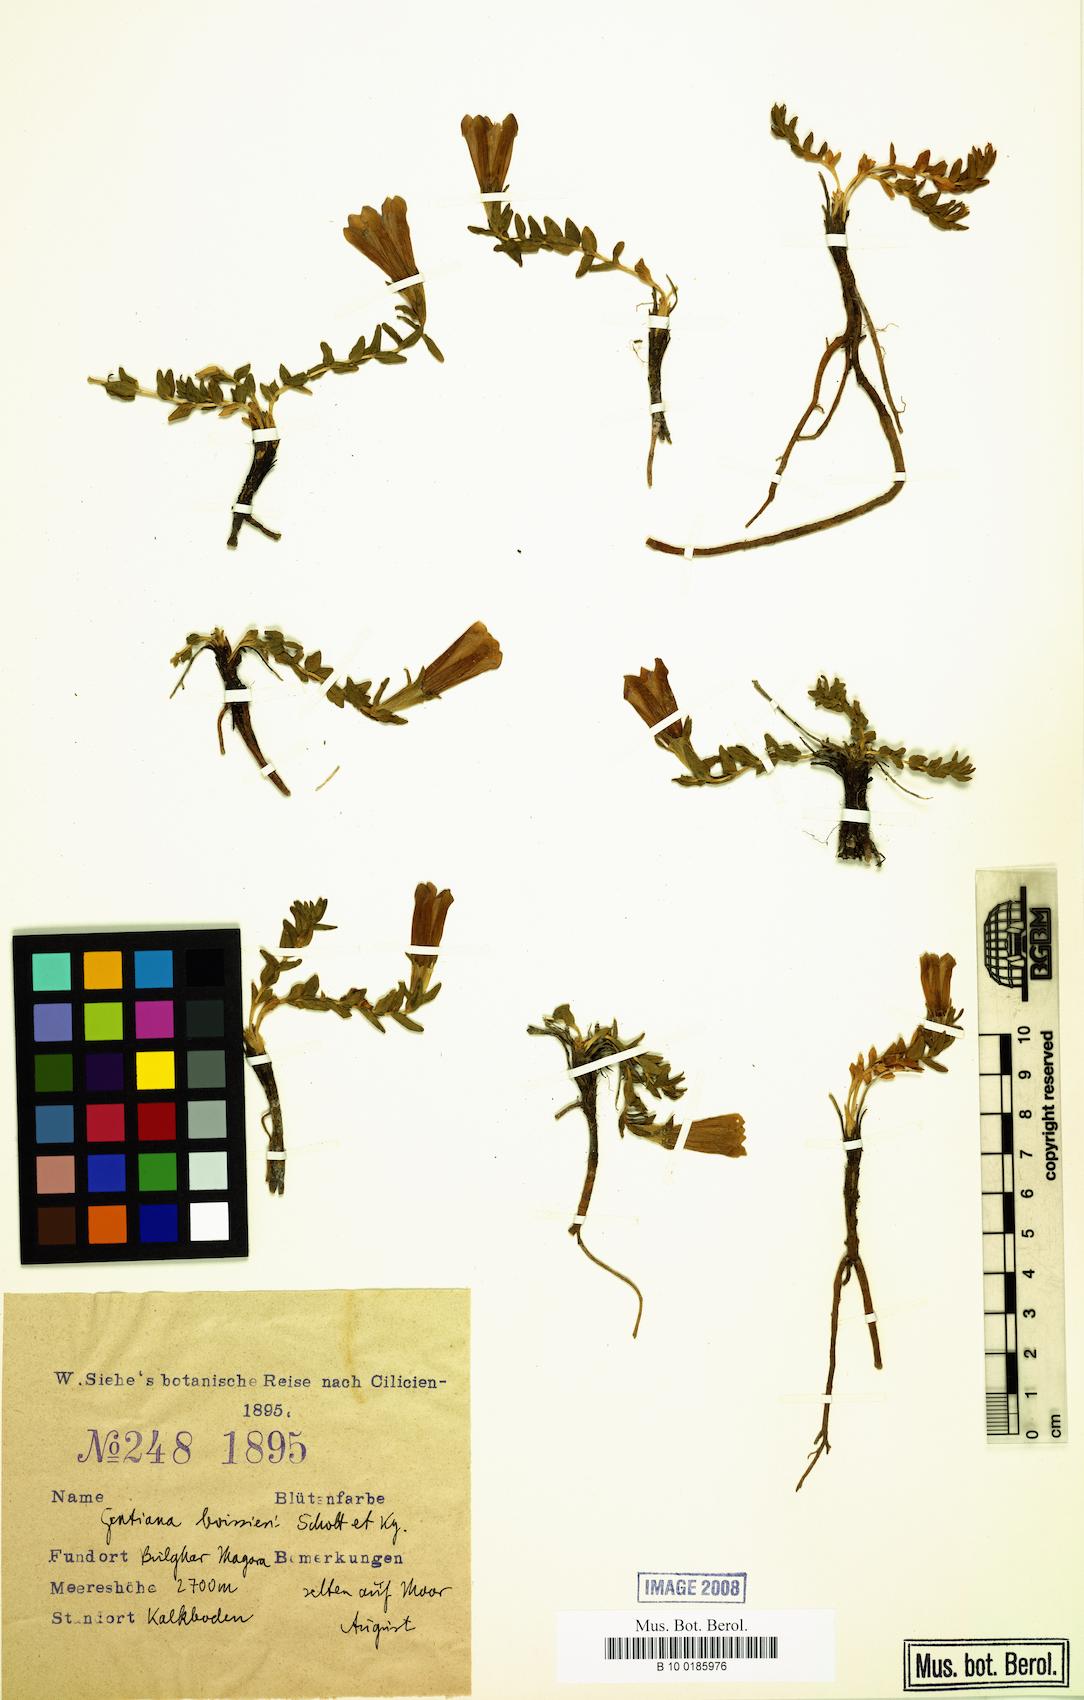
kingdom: Plantae
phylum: Tracheophyta
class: Magnoliopsida
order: Gentianales
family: Gentianaceae
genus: Gentiana
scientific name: Gentiana boissieri
